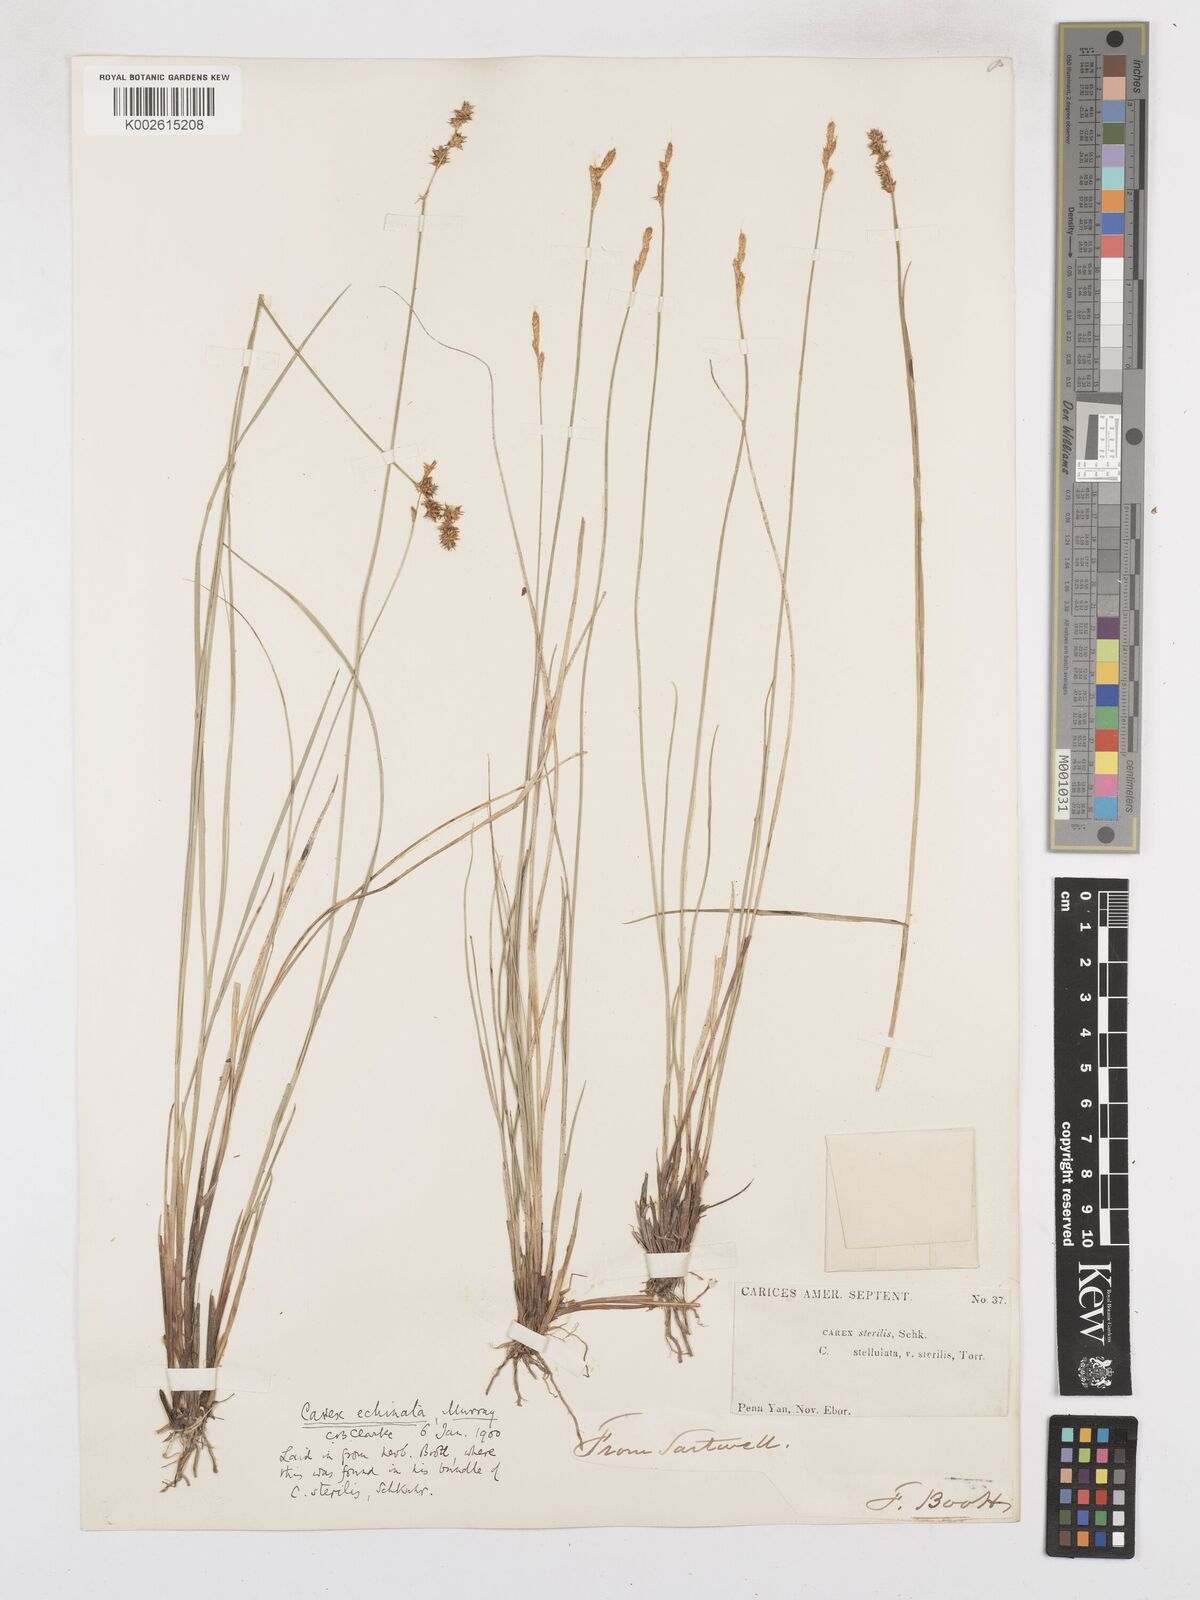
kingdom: Plantae
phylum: Tracheophyta
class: Liliopsida
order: Poales
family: Cyperaceae
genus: Carex
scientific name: Carex echinata
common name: Star sedge
